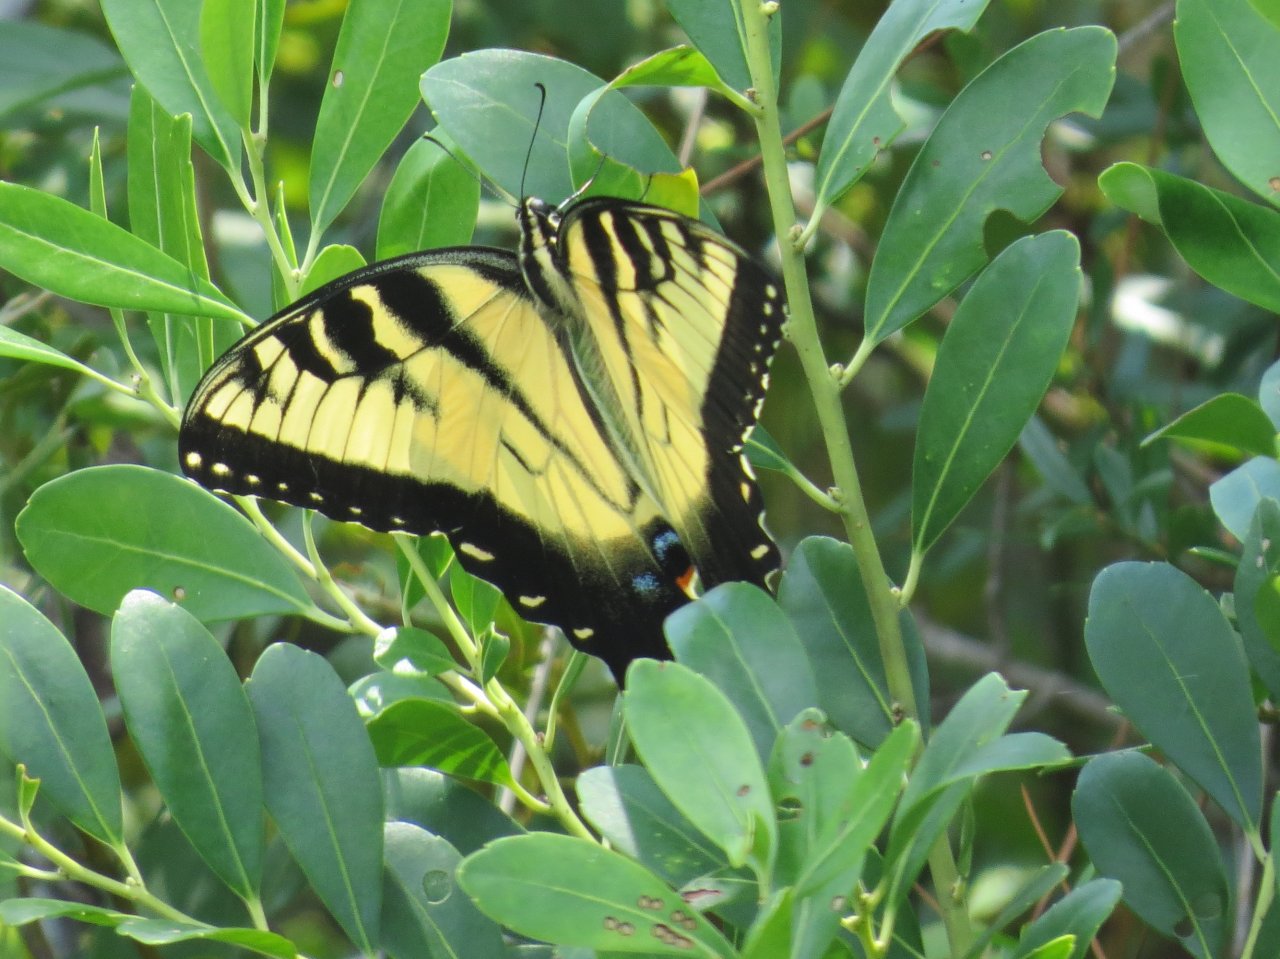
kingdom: Animalia
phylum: Arthropoda
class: Insecta
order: Lepidoptera
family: Papilionidae
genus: Pterourus
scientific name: Pterourus glaucus
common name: Eastern Tiger Swallowtail
